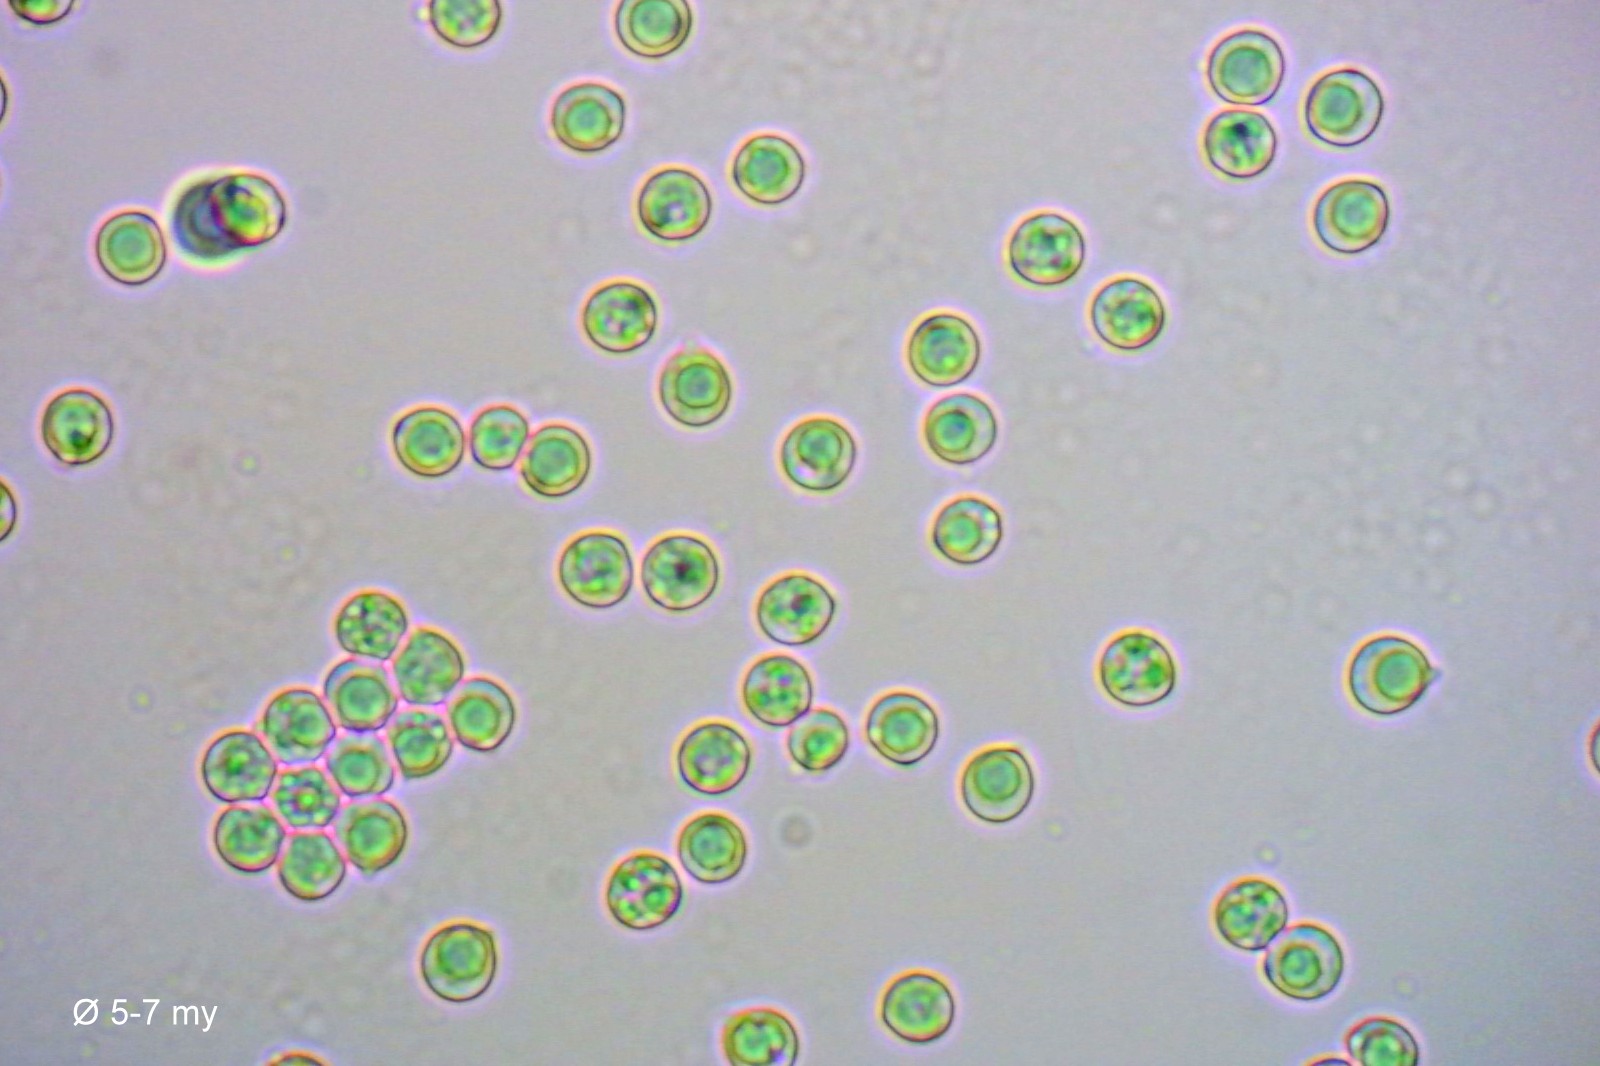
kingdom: Fungi
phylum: Basidiomycota
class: Agaricomycetes
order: Agaricales
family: Lyophyllaceae
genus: Lyophyllum
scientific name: Lyophyllum decastes
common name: røggrå gråblad
